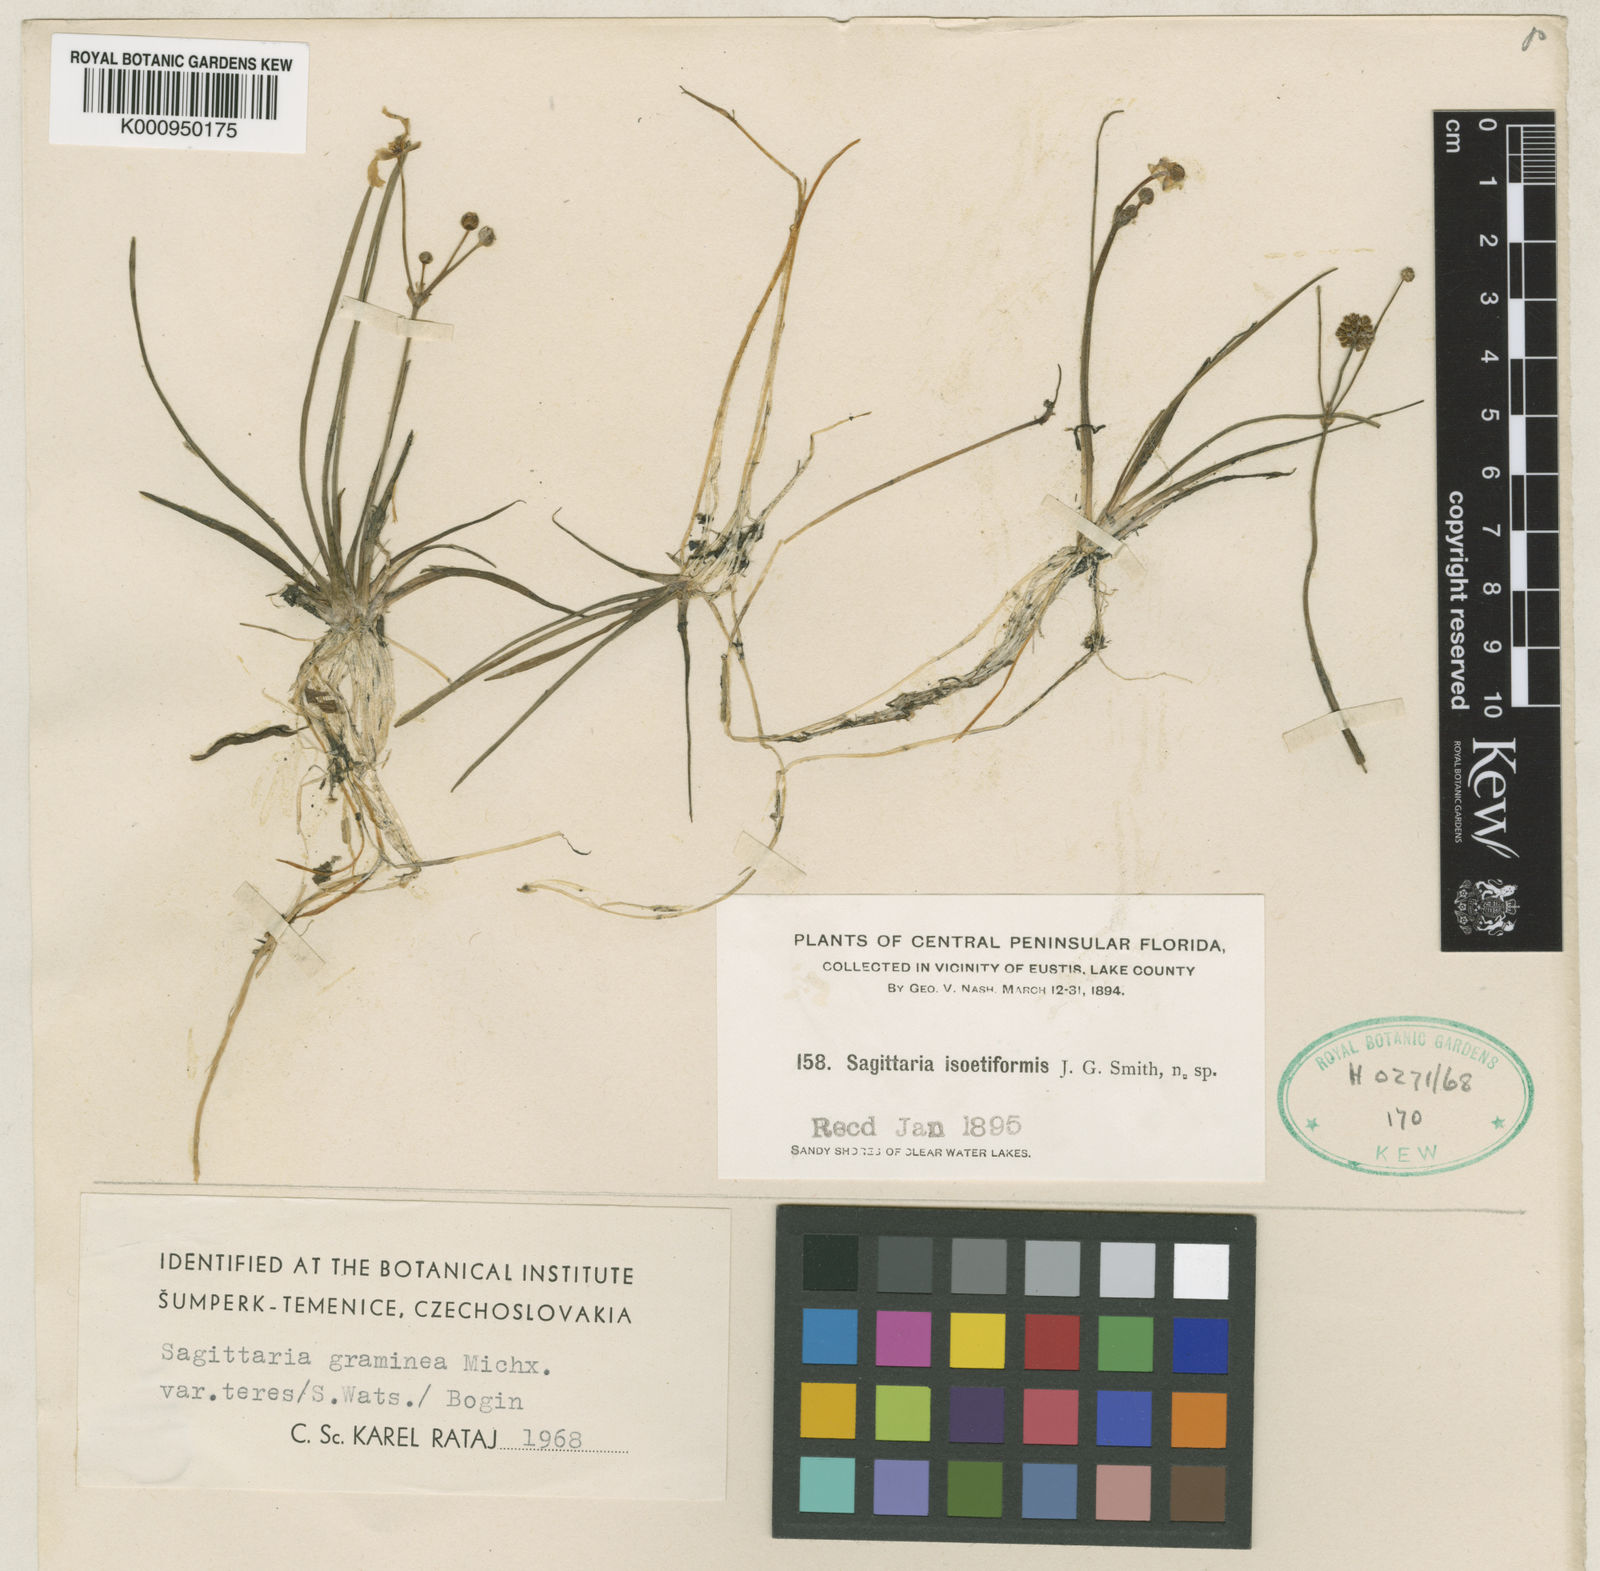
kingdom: Plantae
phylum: Tracheophyta
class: Liliopsida
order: Alismatales
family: Alismataceae
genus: Sagittaria
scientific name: Sagittaria graminea
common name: Grass-leaved arrowhead
